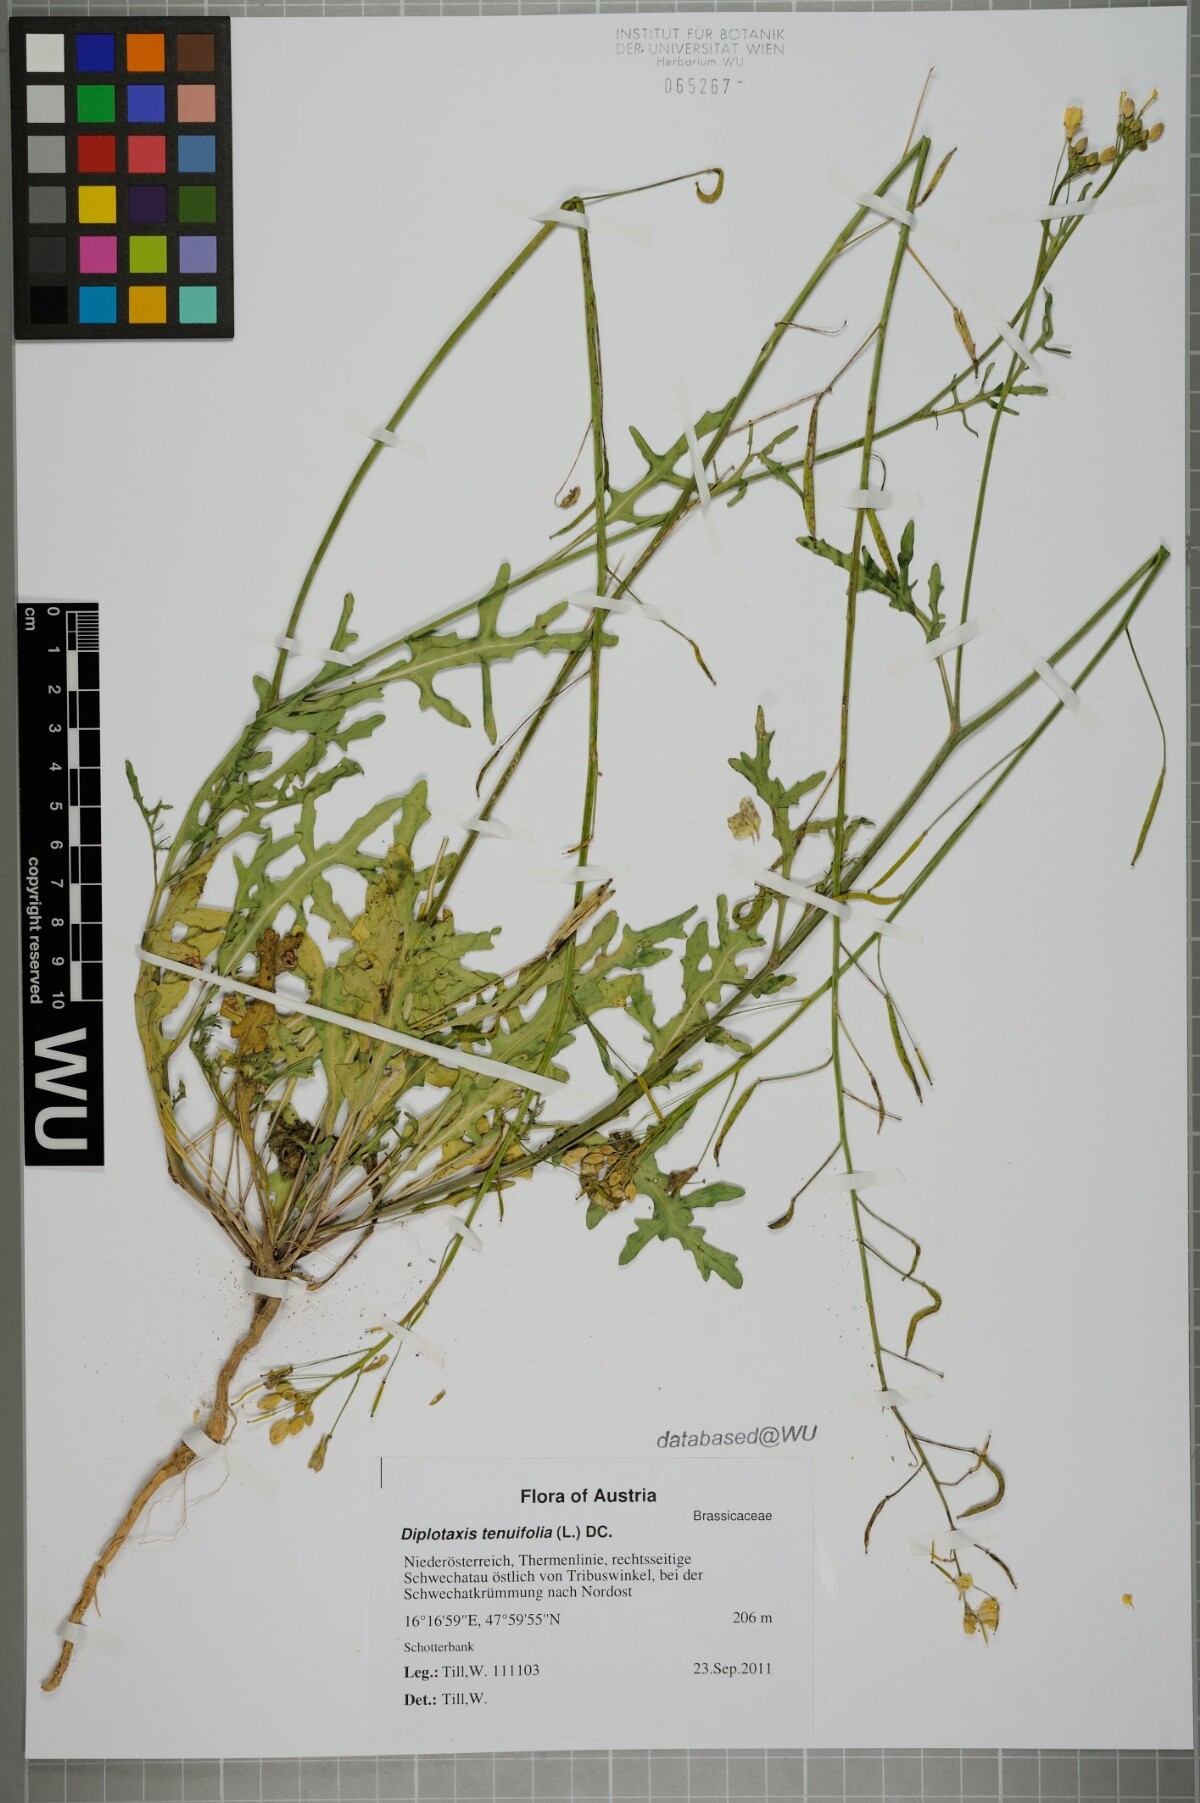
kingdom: Plantae
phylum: Tracheophyta
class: Magnoliopsida
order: Brassicales
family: Brassicaceae
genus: Diplotaxis
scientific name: Diplotaxis tenuifolia
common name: Perennial wall-rocket
